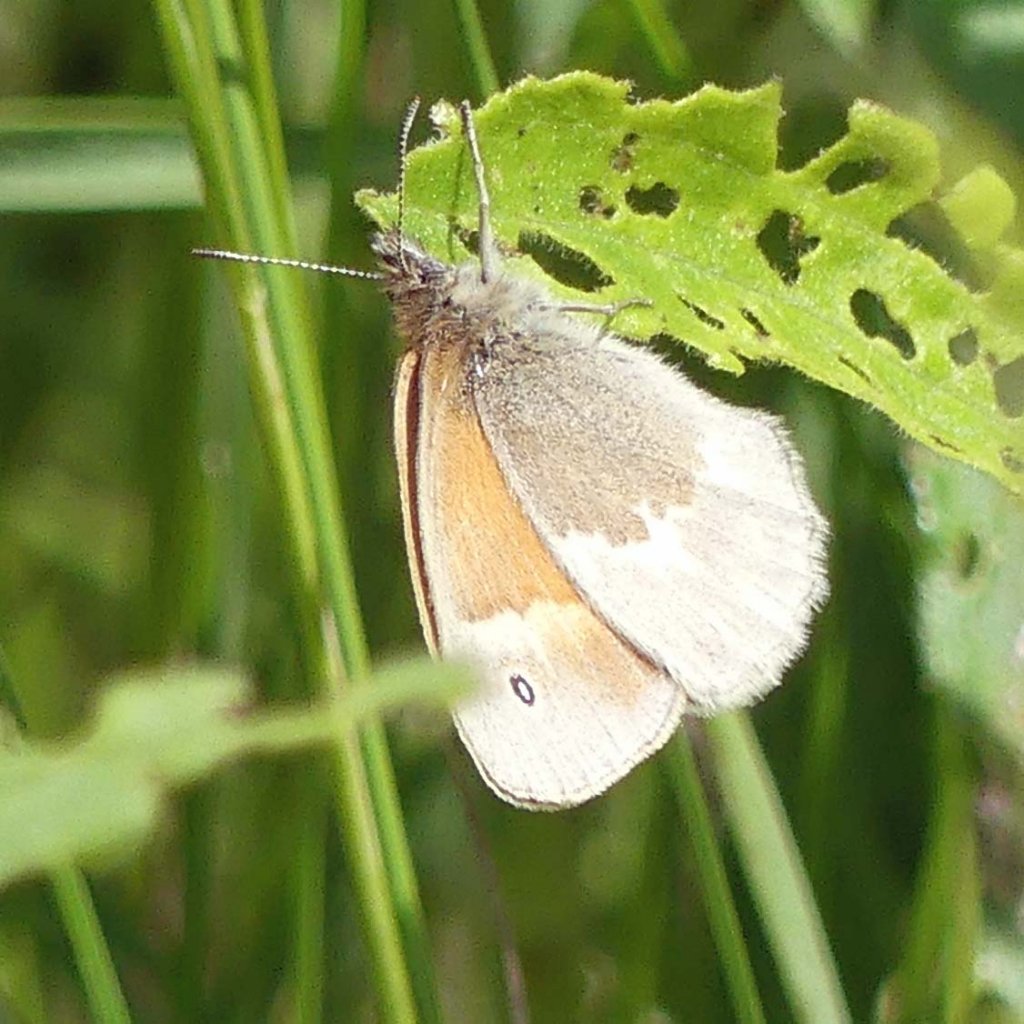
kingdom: Animalia
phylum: Arthropoda
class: Insecta
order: Lepidoptera
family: Nymphalidae
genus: Coenonympha
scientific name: Coenonympha tullia
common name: Large Heath
